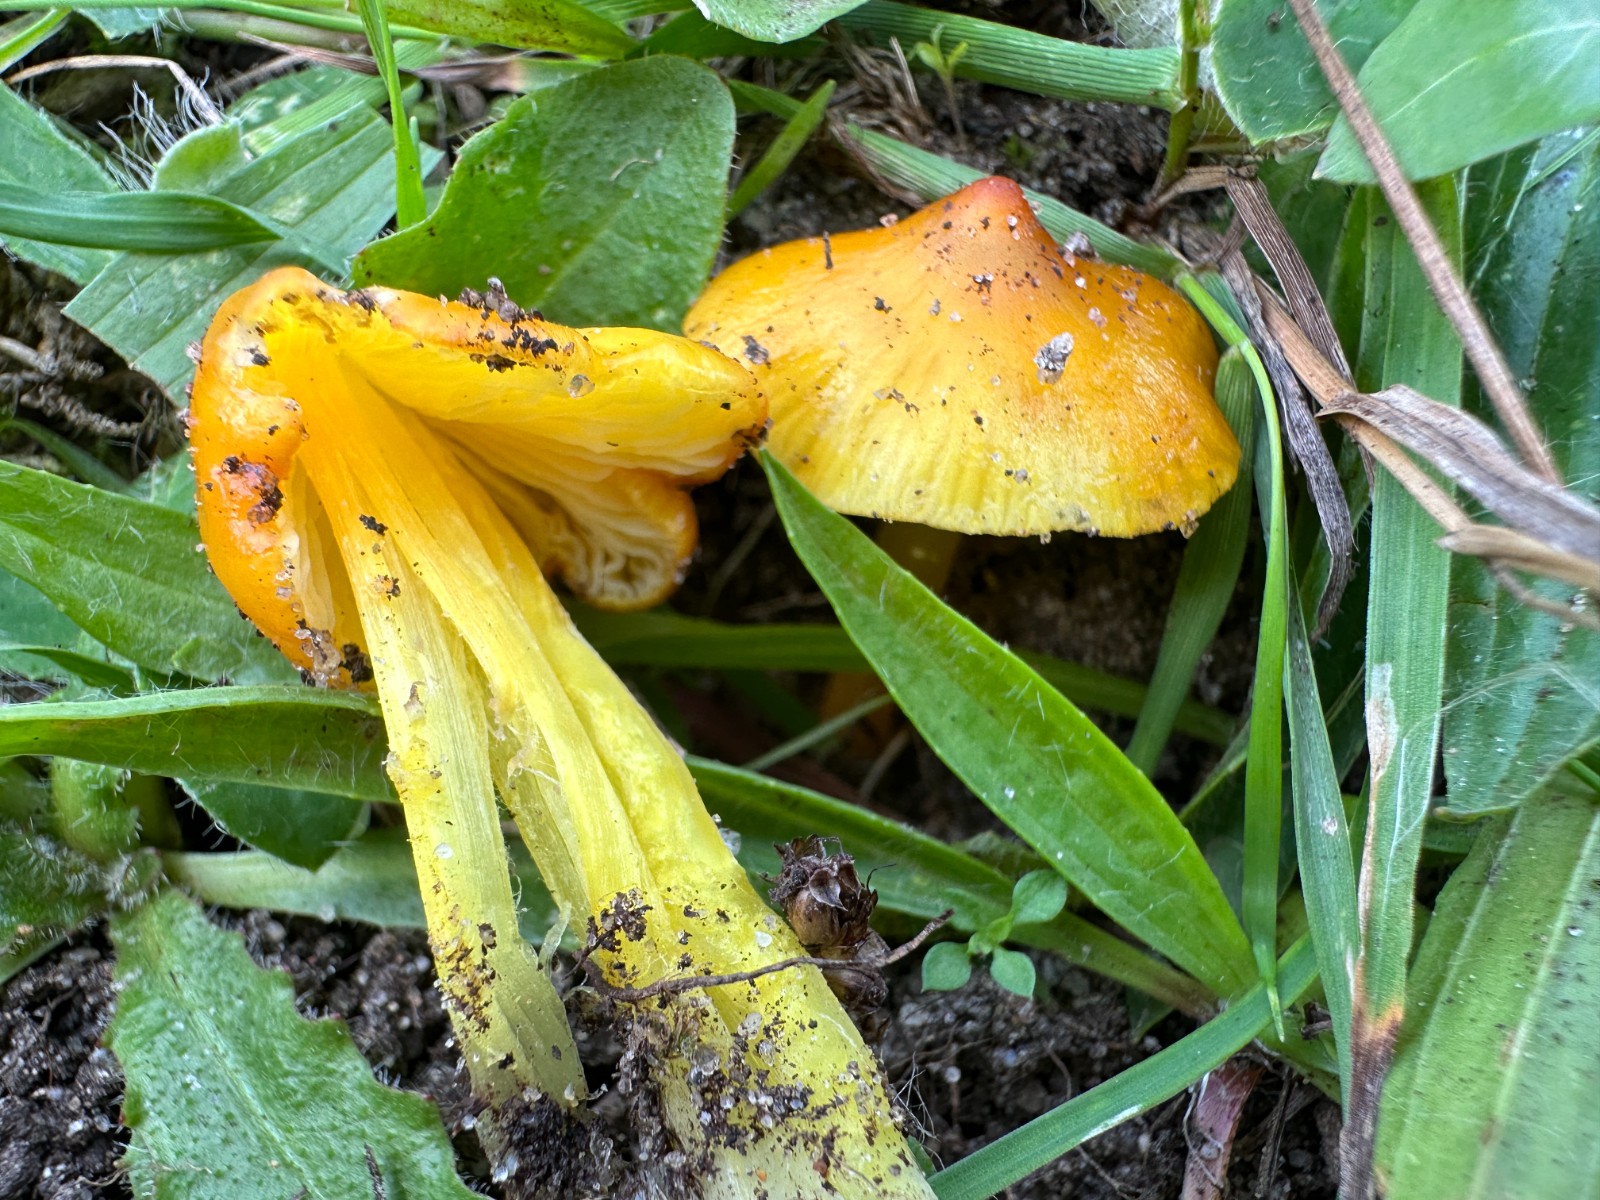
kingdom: Fungi
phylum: Basidiomycota
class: Agaricomycetes
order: Agaricales
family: Hygrophoraceae
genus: Hygrocybe
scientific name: Hygrocybe acutoconica
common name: spidspuklet vokshat
